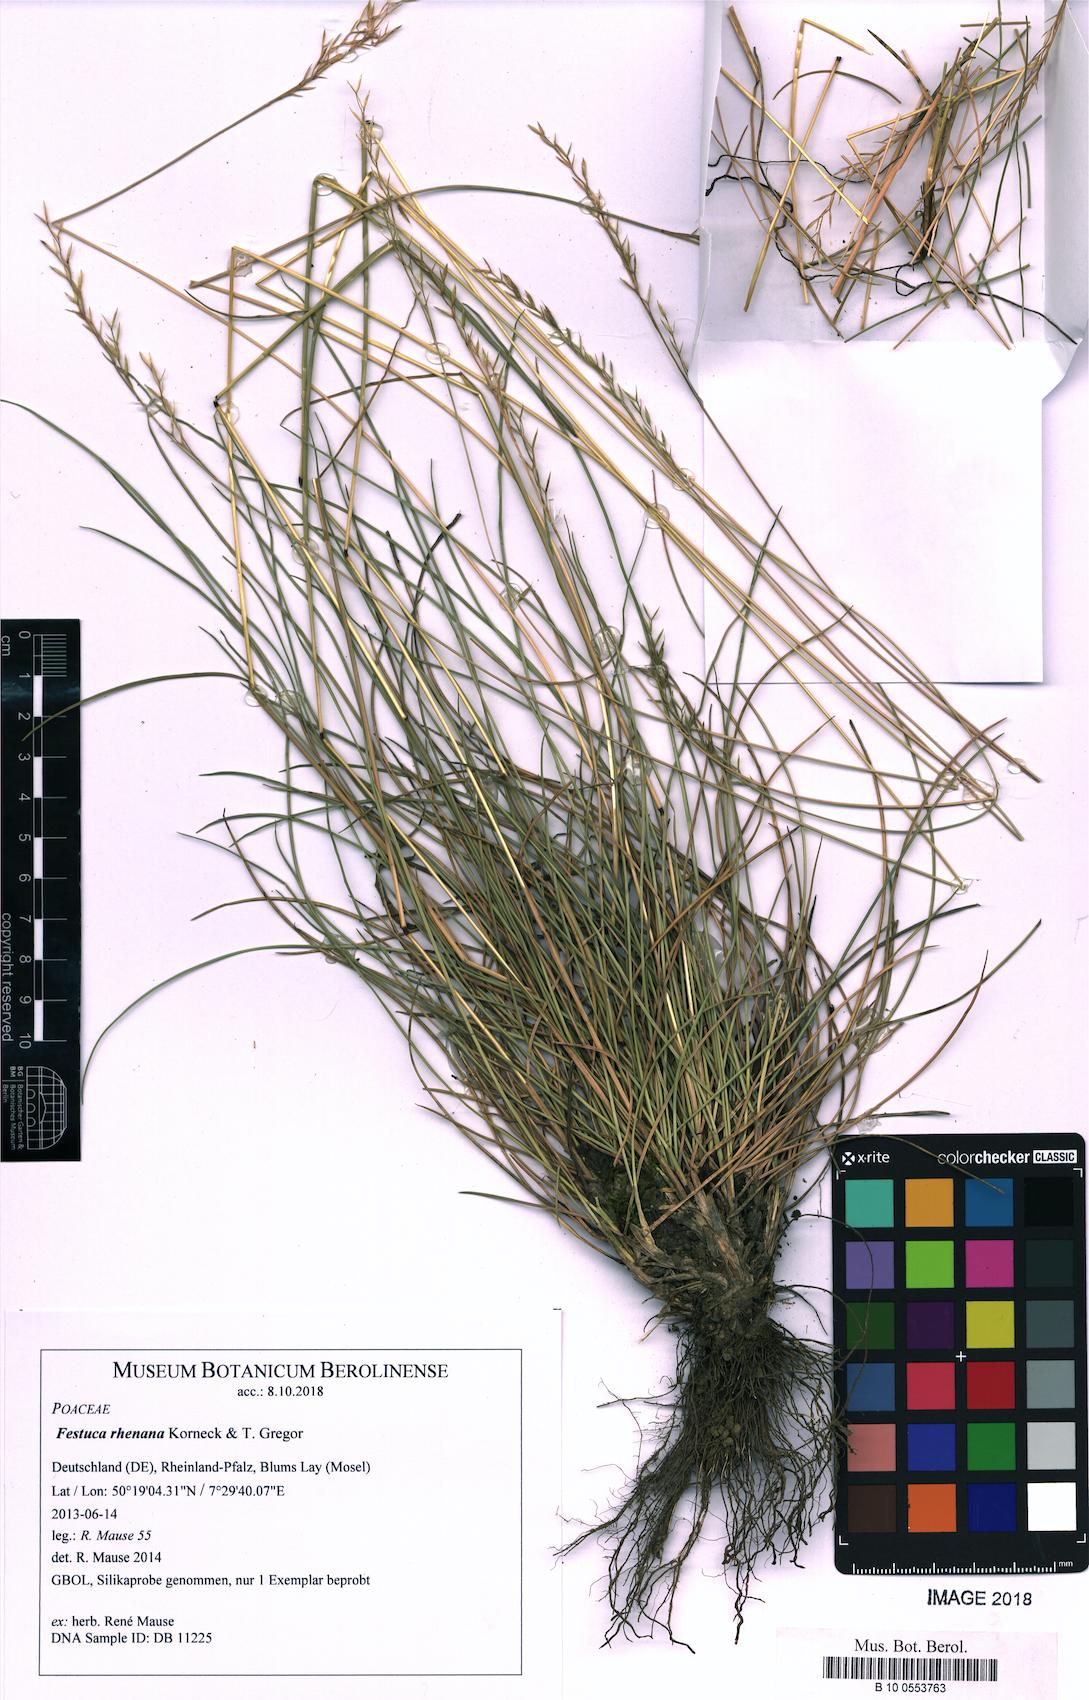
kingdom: Plantae
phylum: Tracheophyta
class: Liliopsida
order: Poales
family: Poaceae
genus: Festuca
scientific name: Festuca heteropachys
